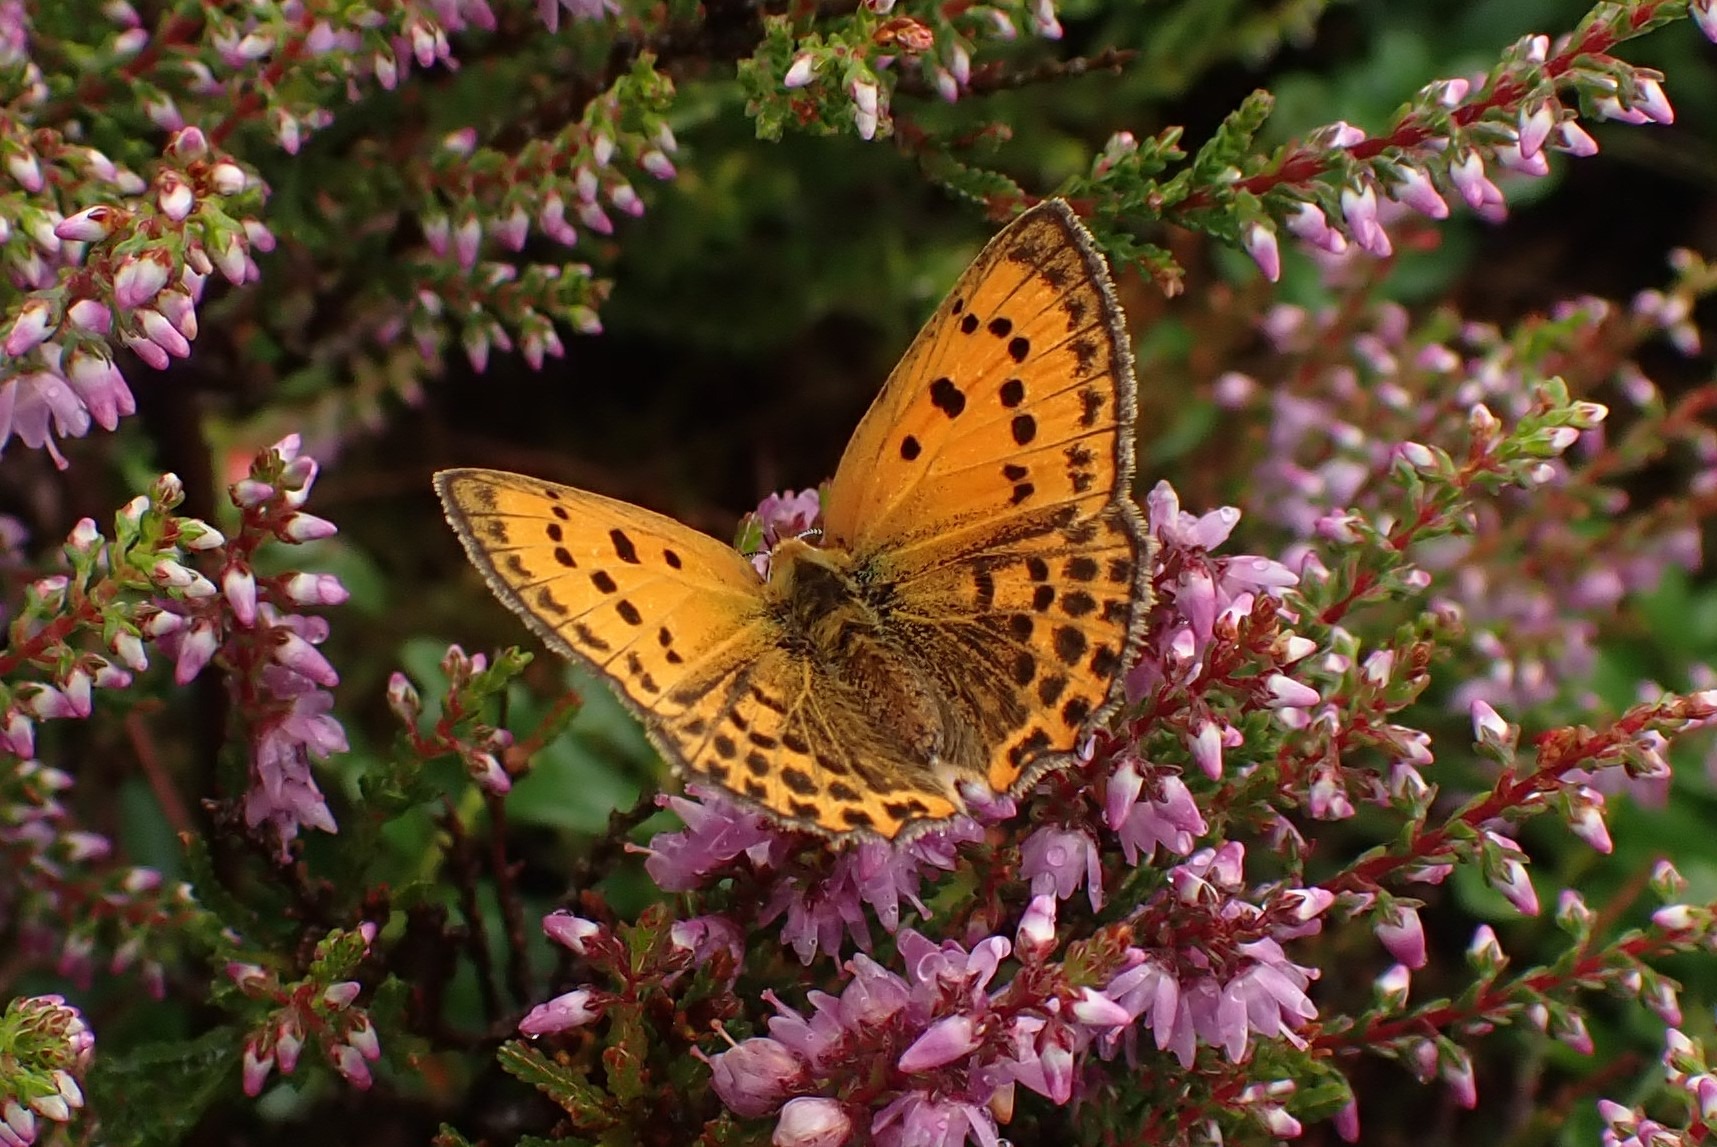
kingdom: Animalia
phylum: Arthropoda
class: Insecta
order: Lepidoptera
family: Lycaenidae
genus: Lycaena
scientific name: Lycaena virgaureae
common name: Dukatsommerfugl
